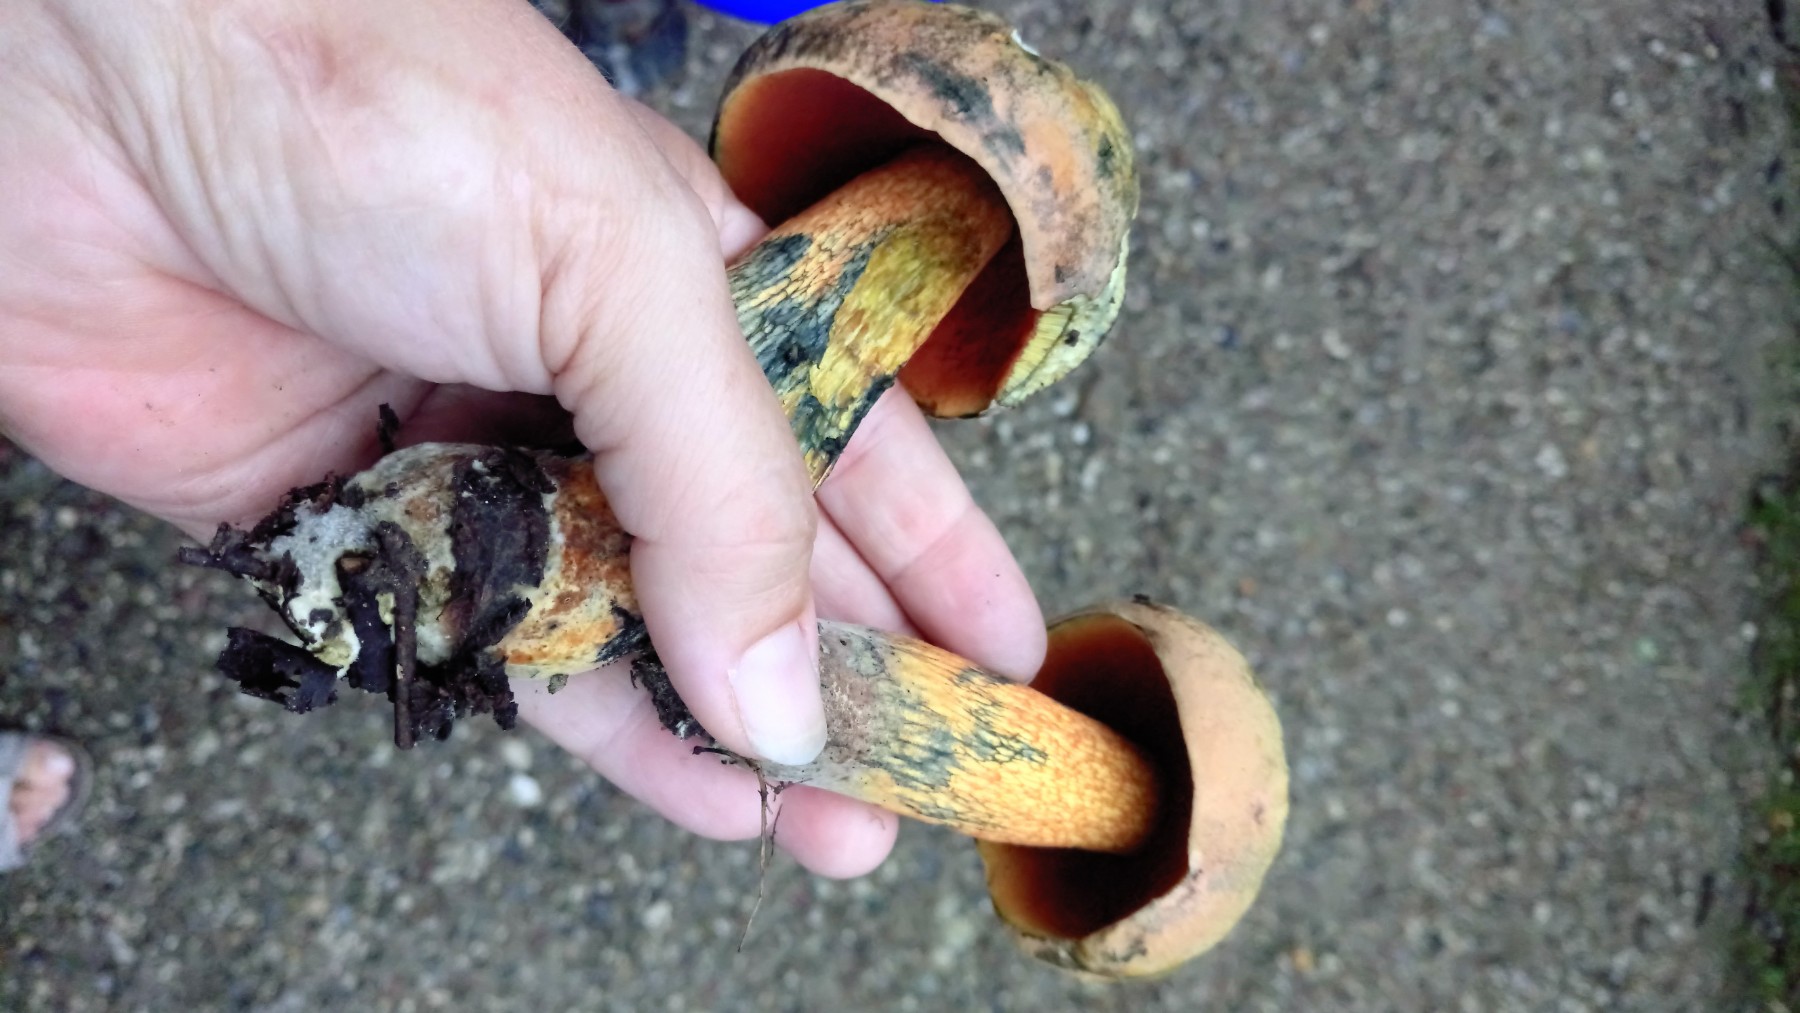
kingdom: Fungi
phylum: Basidiomycota
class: Agaricomycetes
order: Boletales
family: Boletaceae
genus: Suillellus
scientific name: Suillellus luridus
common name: netstokket indigorørhat
